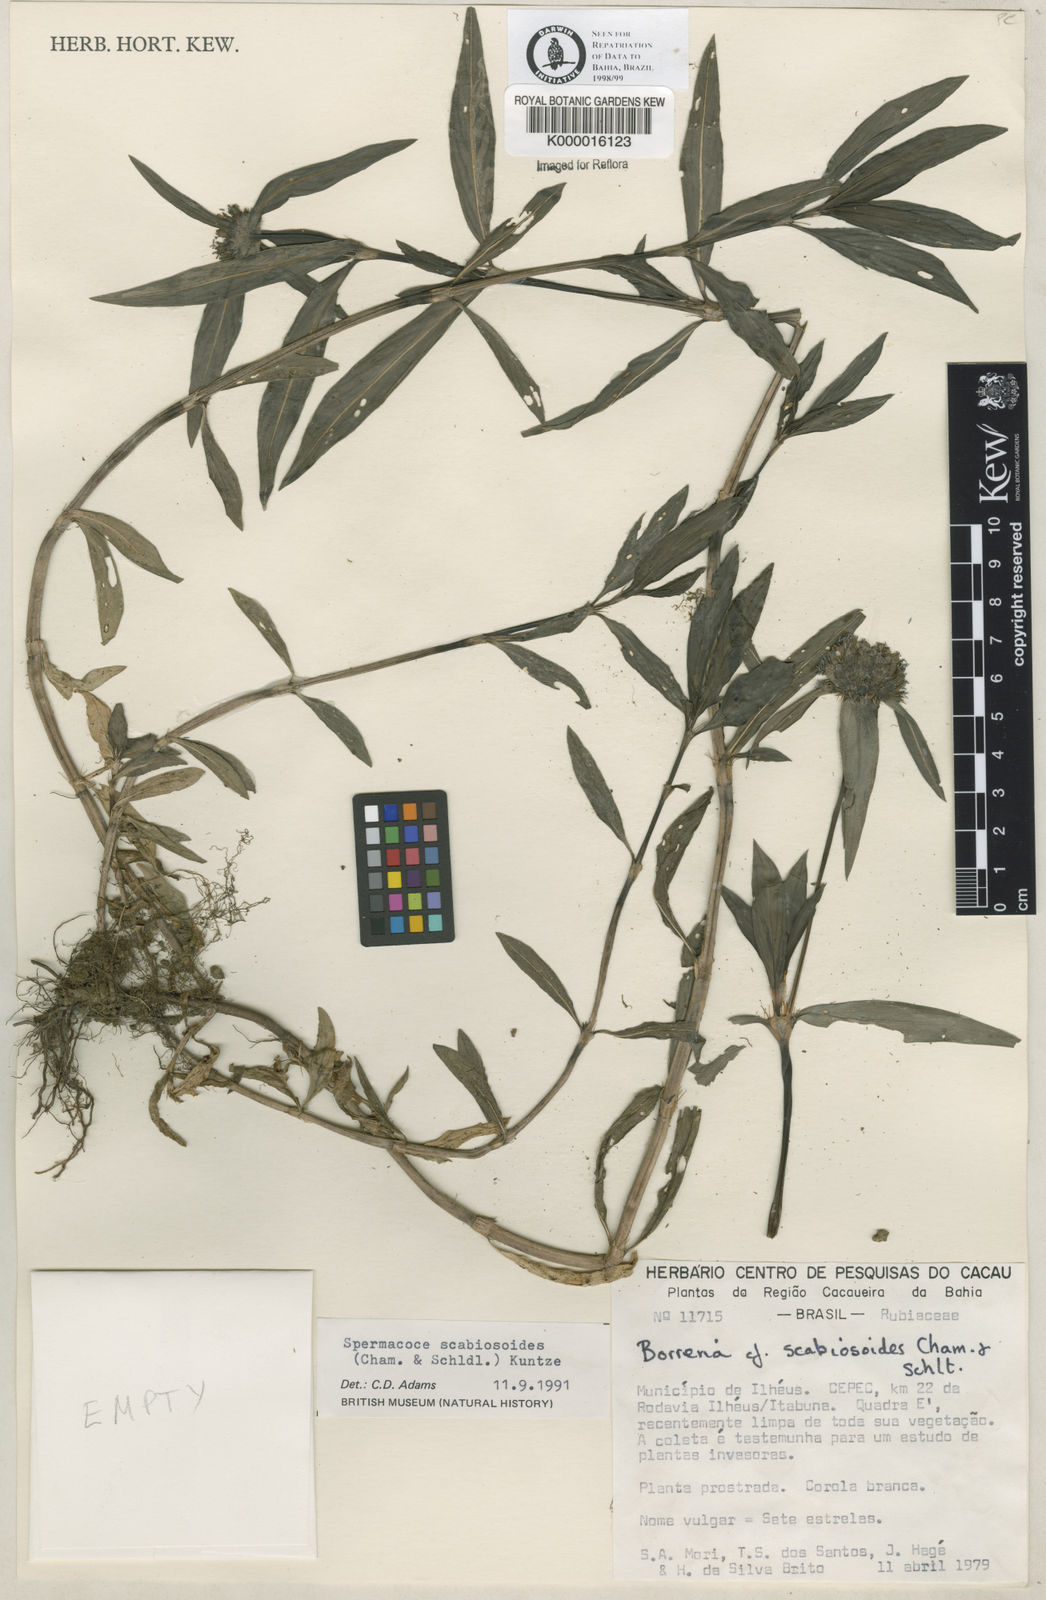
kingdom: Plantae
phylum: Tracheophyta
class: Magnoliopsida
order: Gentianales
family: Rubiaceae
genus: Spermacoce
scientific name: Spermacoce scabiosoides
